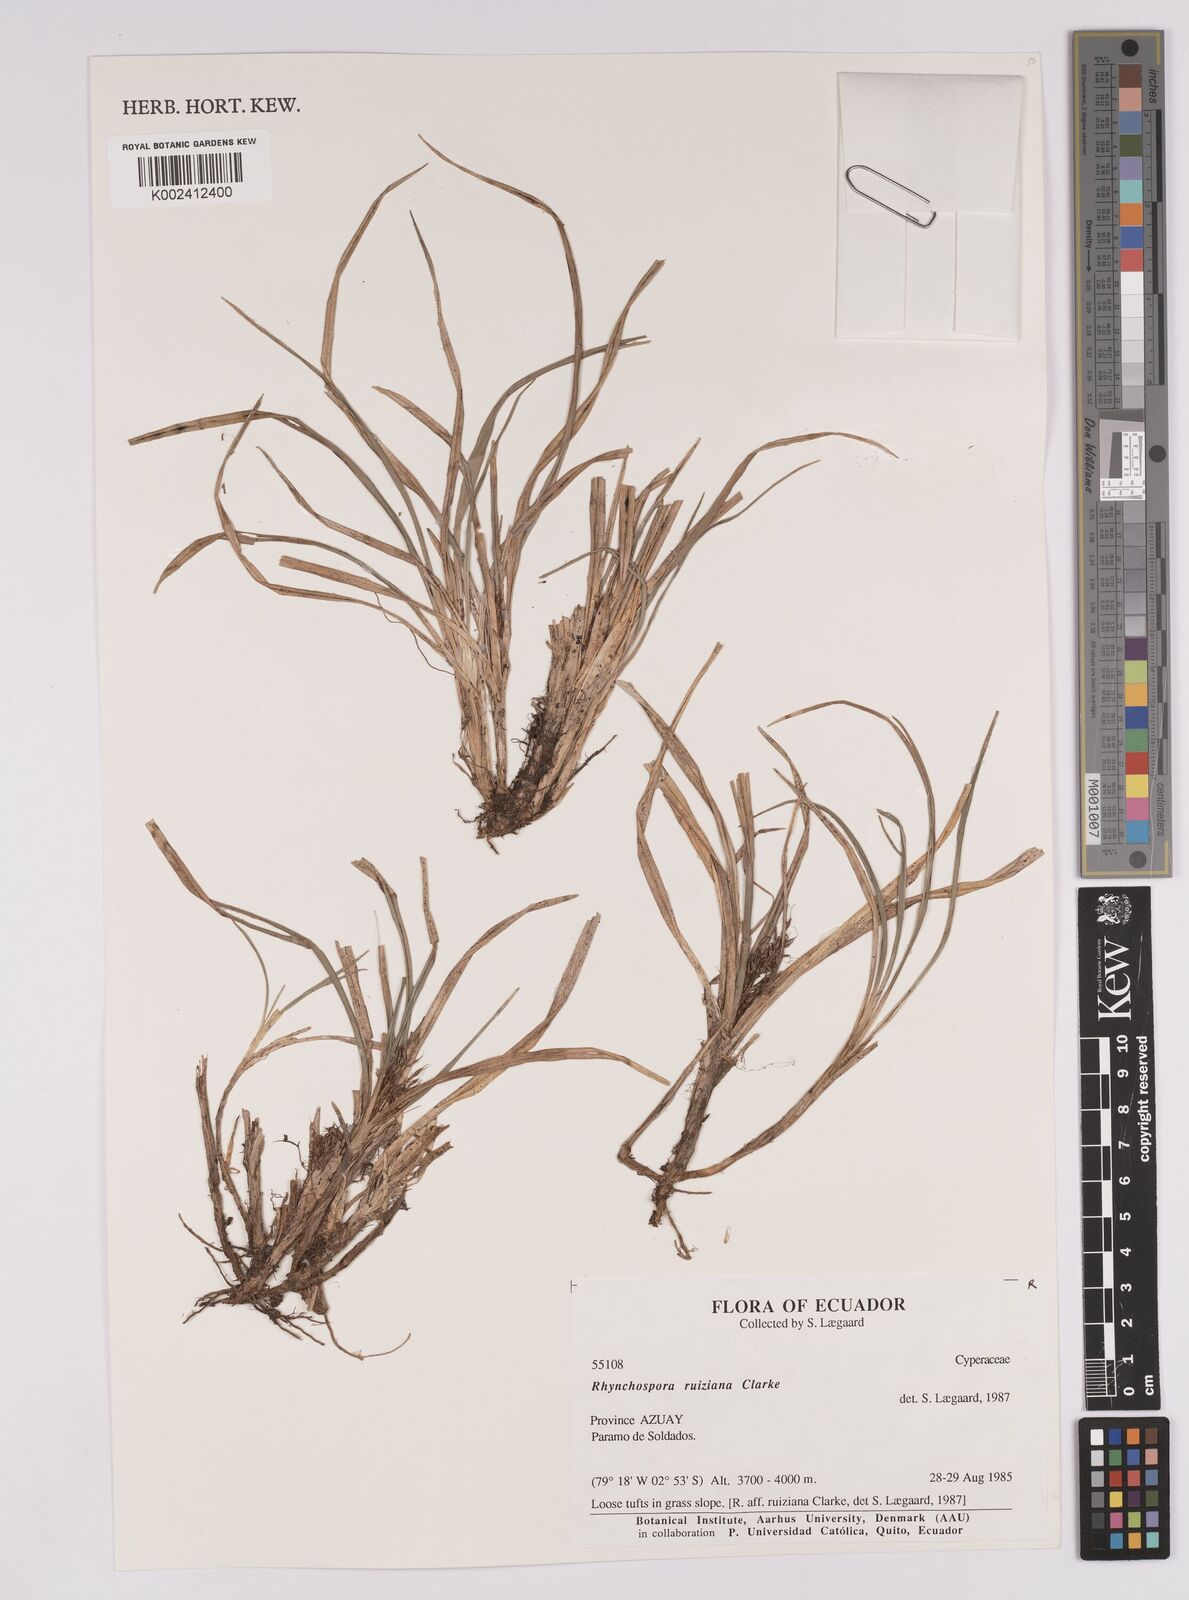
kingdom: Plantae
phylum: Tracheophyta
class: Liliopsida
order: Poales
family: Cyperaceae
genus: Rhynchospora
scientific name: Rhynchospora ruiziana
